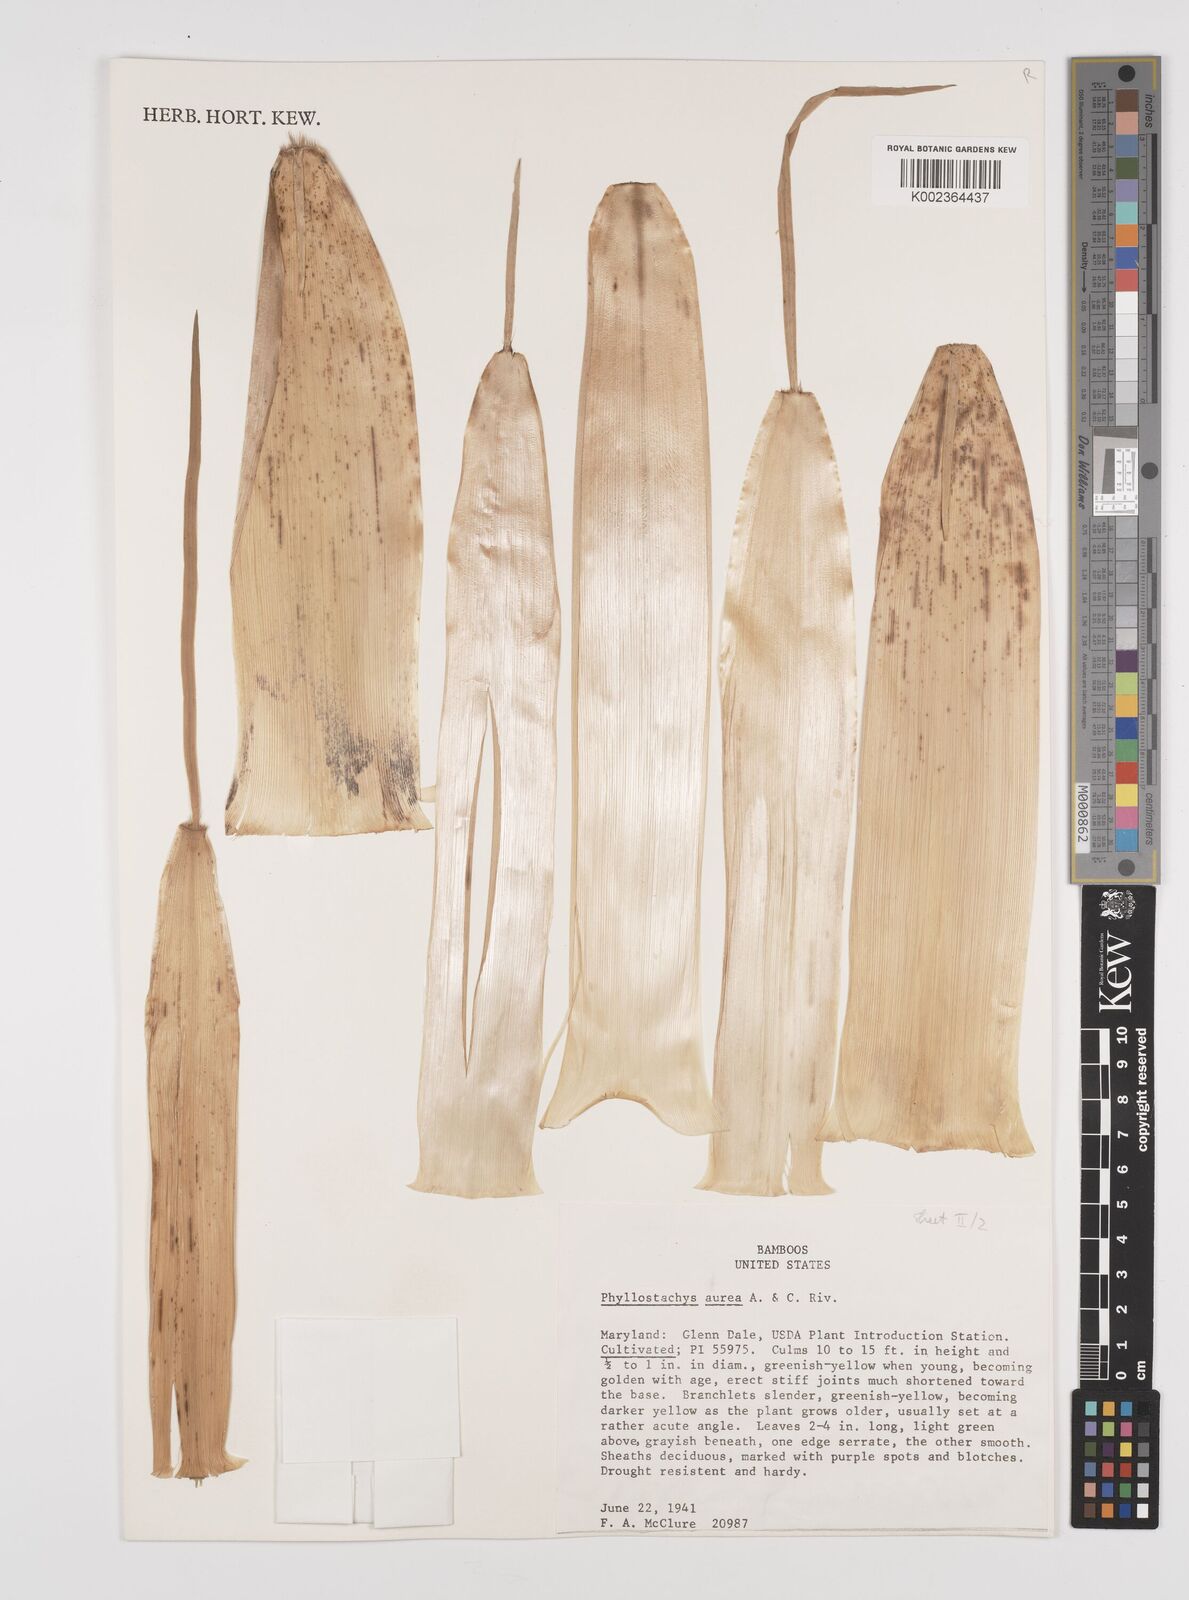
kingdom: Plantae
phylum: Tracheophyta
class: Liliopsida
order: Poales
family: Poaceae
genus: Phyllostachys
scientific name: Phyllostachys aurea
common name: Golden bamboo
